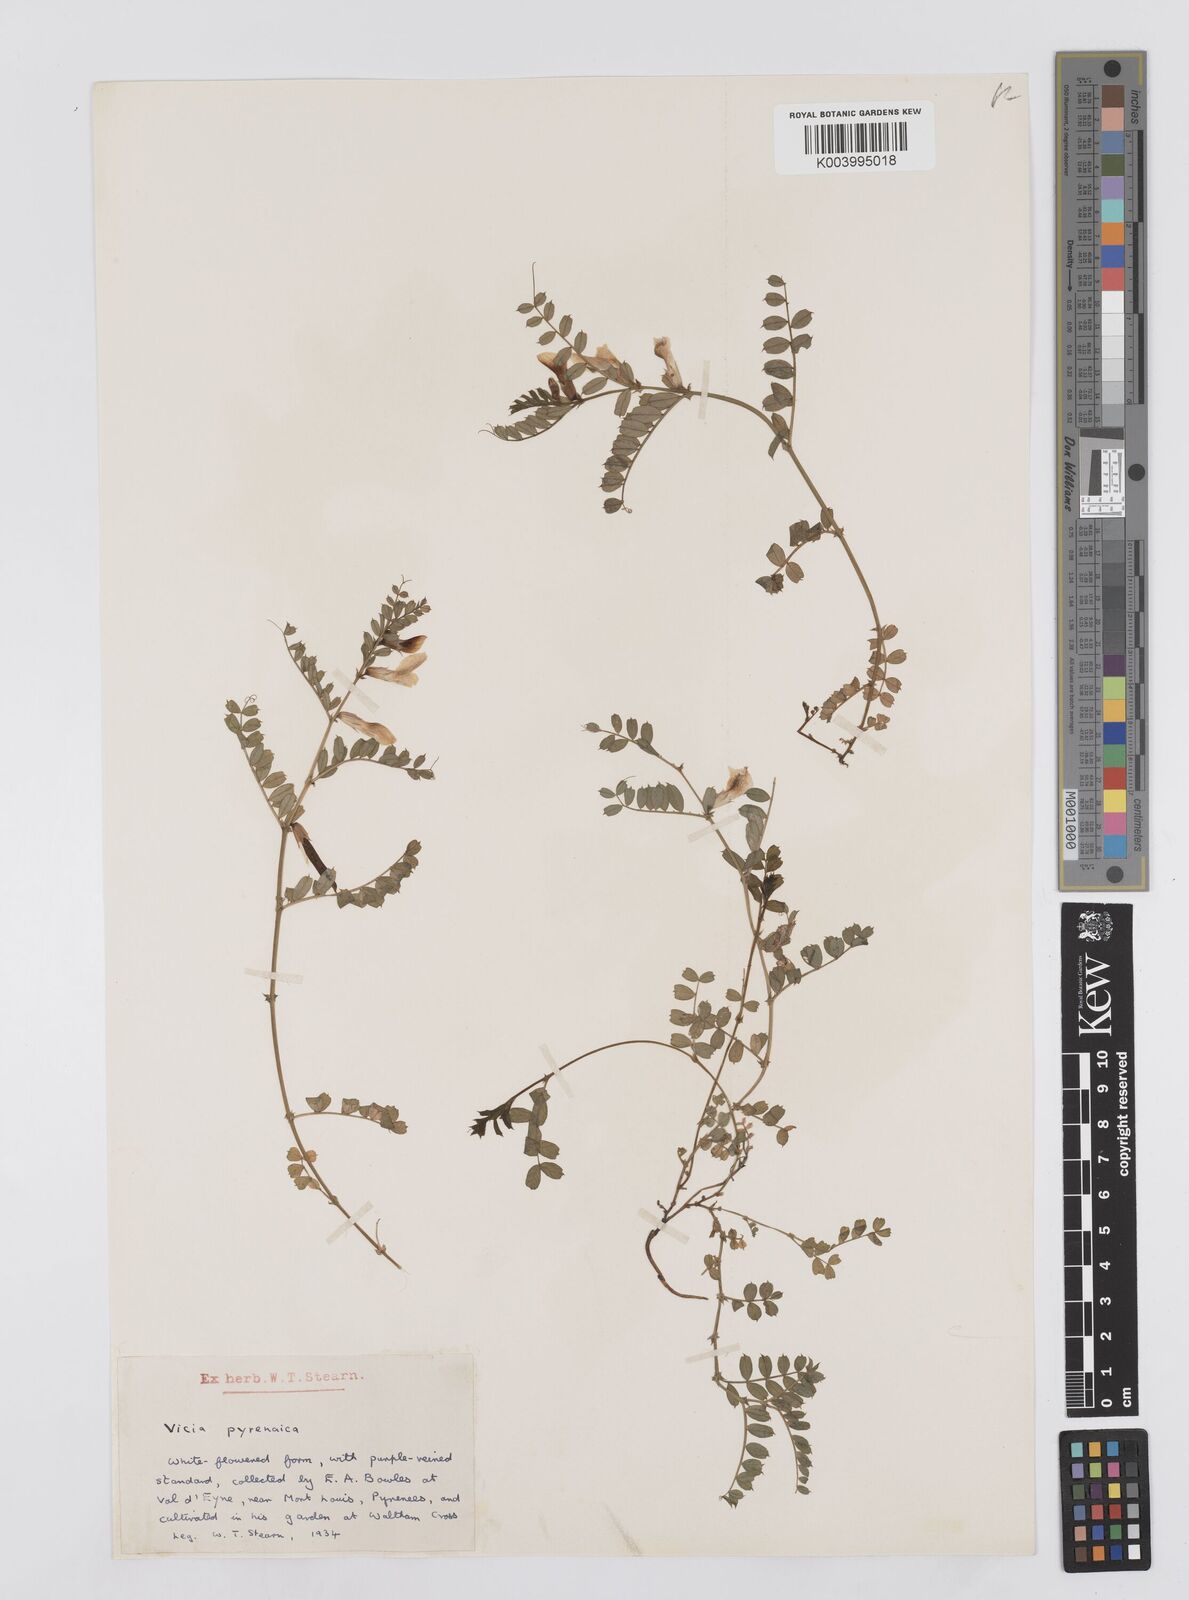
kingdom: Plantae
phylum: Tracheophyta
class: Magnoliopsida
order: Fabales
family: Fabaceae
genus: Vicia
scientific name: Vicia pyrenaica
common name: Pyrenean vetch
